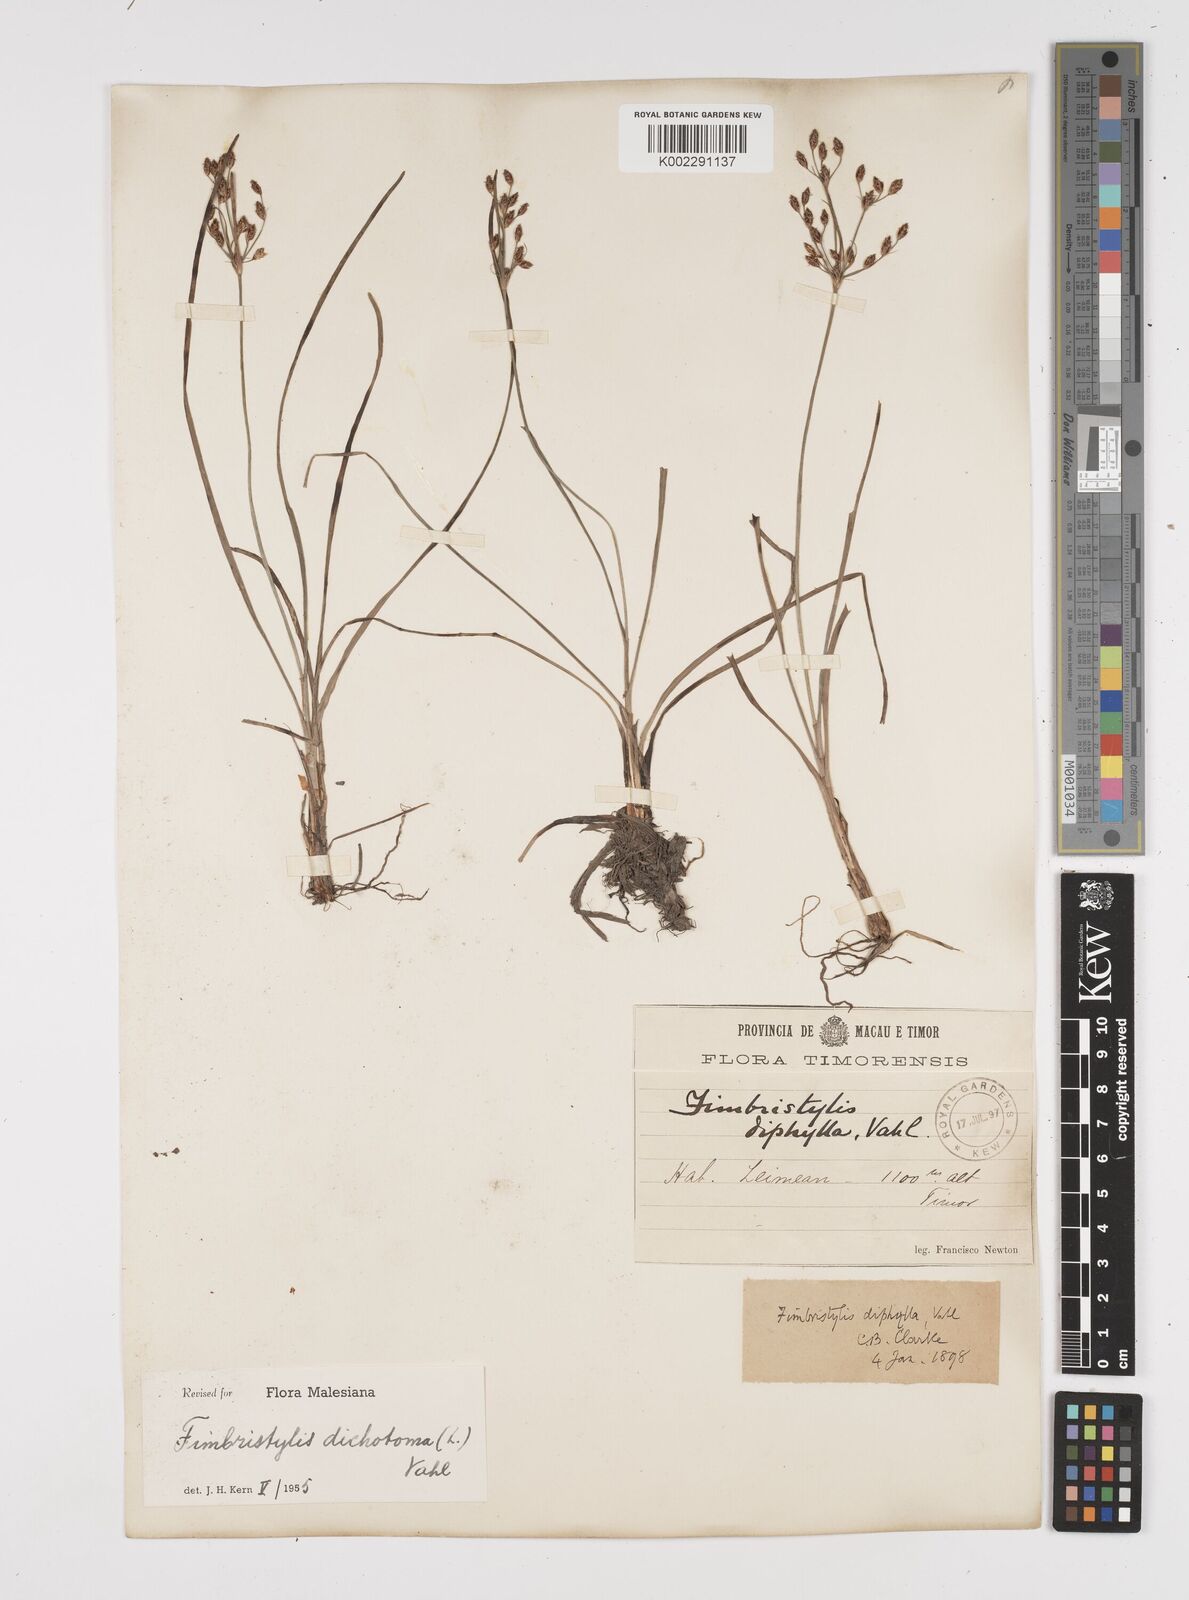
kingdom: Plantae
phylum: Tracheophyta
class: Liliopsida
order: Poales
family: Cyperaceae
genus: Fimbristylis
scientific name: Fimbristylis dichotoma
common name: Forked fimbry
